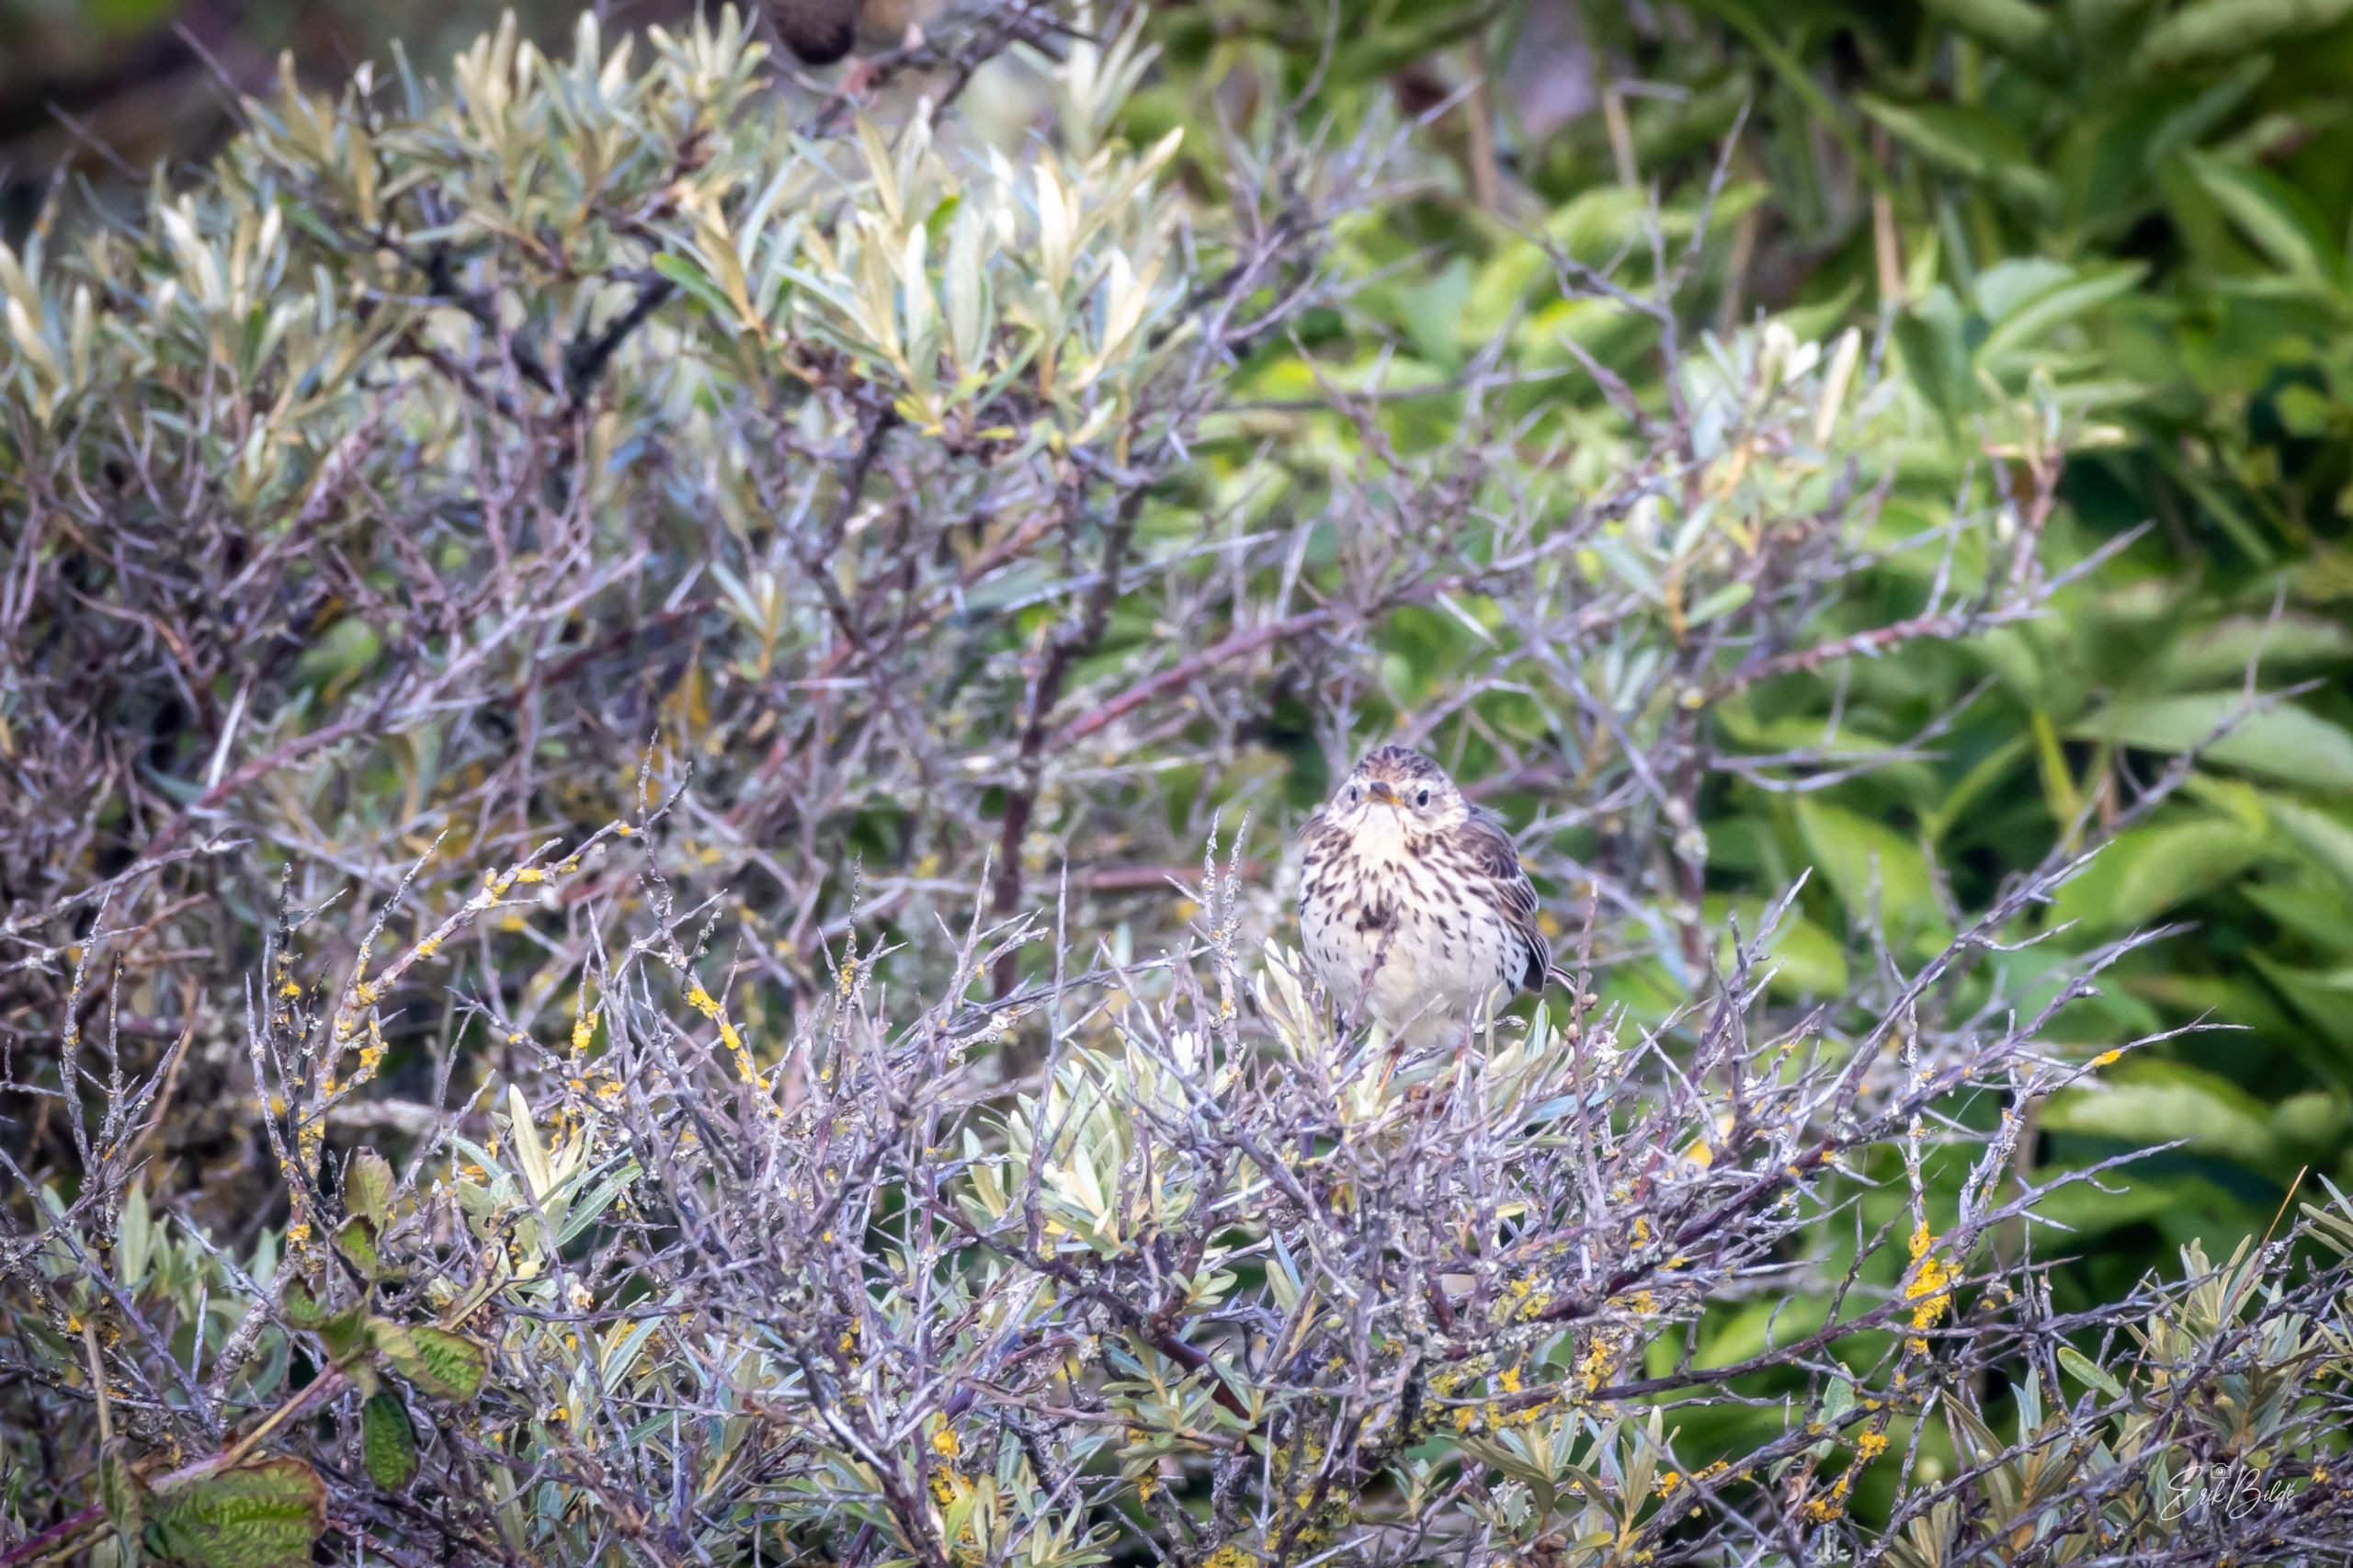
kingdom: Animalia
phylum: Chordata
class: Aves
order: Passeriformes
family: Motacillidae
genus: Anthus
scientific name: Anthus pratensis
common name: Engpiber
